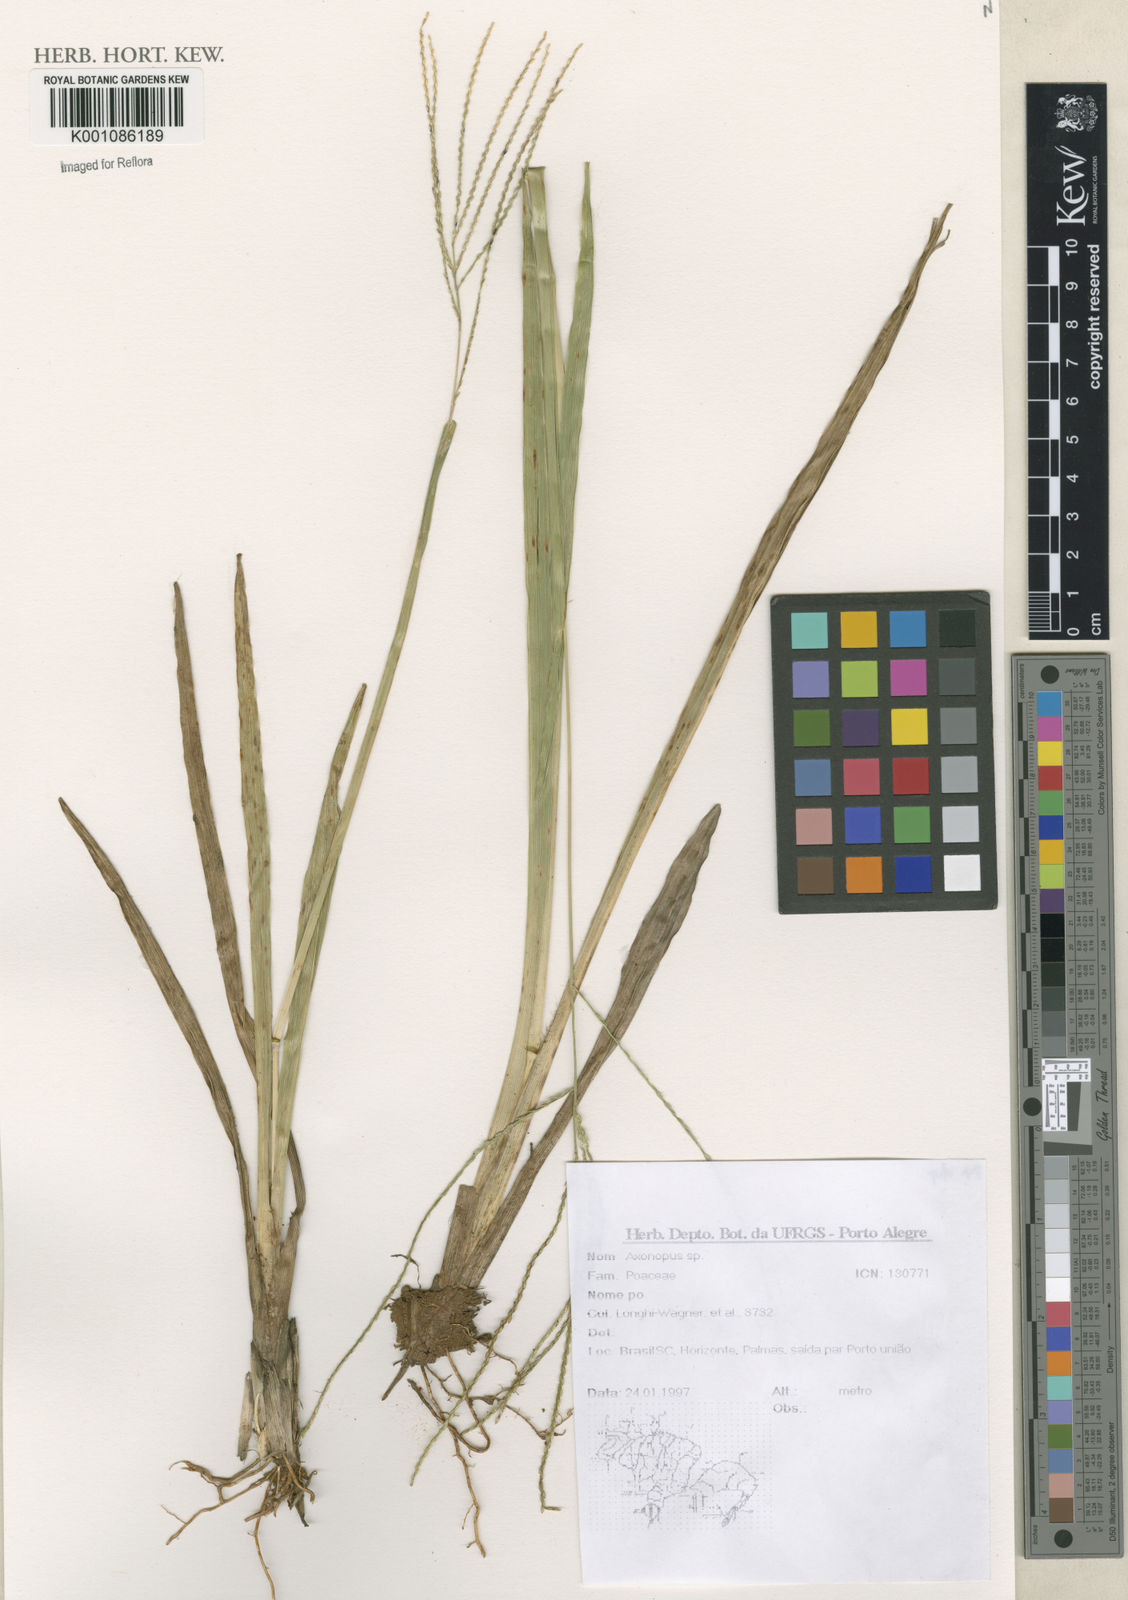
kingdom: Plantae
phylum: Tracheophyta
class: Liliopsida
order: Poales
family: Poaceae
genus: Axonopus
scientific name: Axonopus
